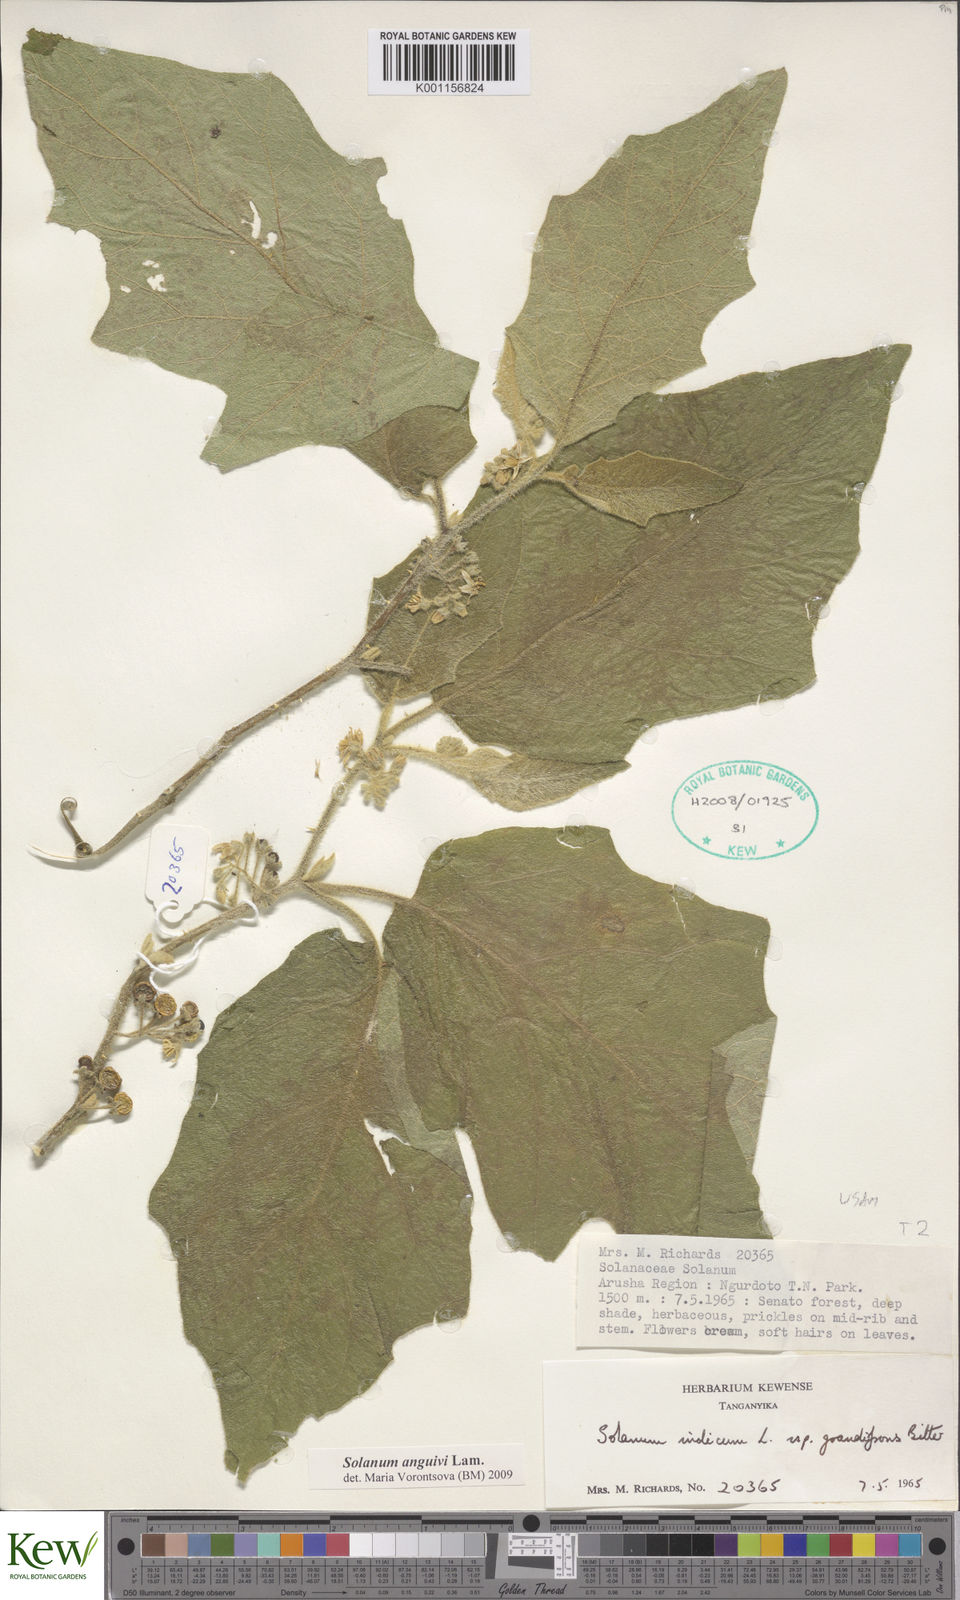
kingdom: Plantae
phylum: Tracheophyta
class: Magnoliopsida
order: Solanales
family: Solanaceae
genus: Solanum
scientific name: Solanum anguivi
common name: Forest bitterberry
